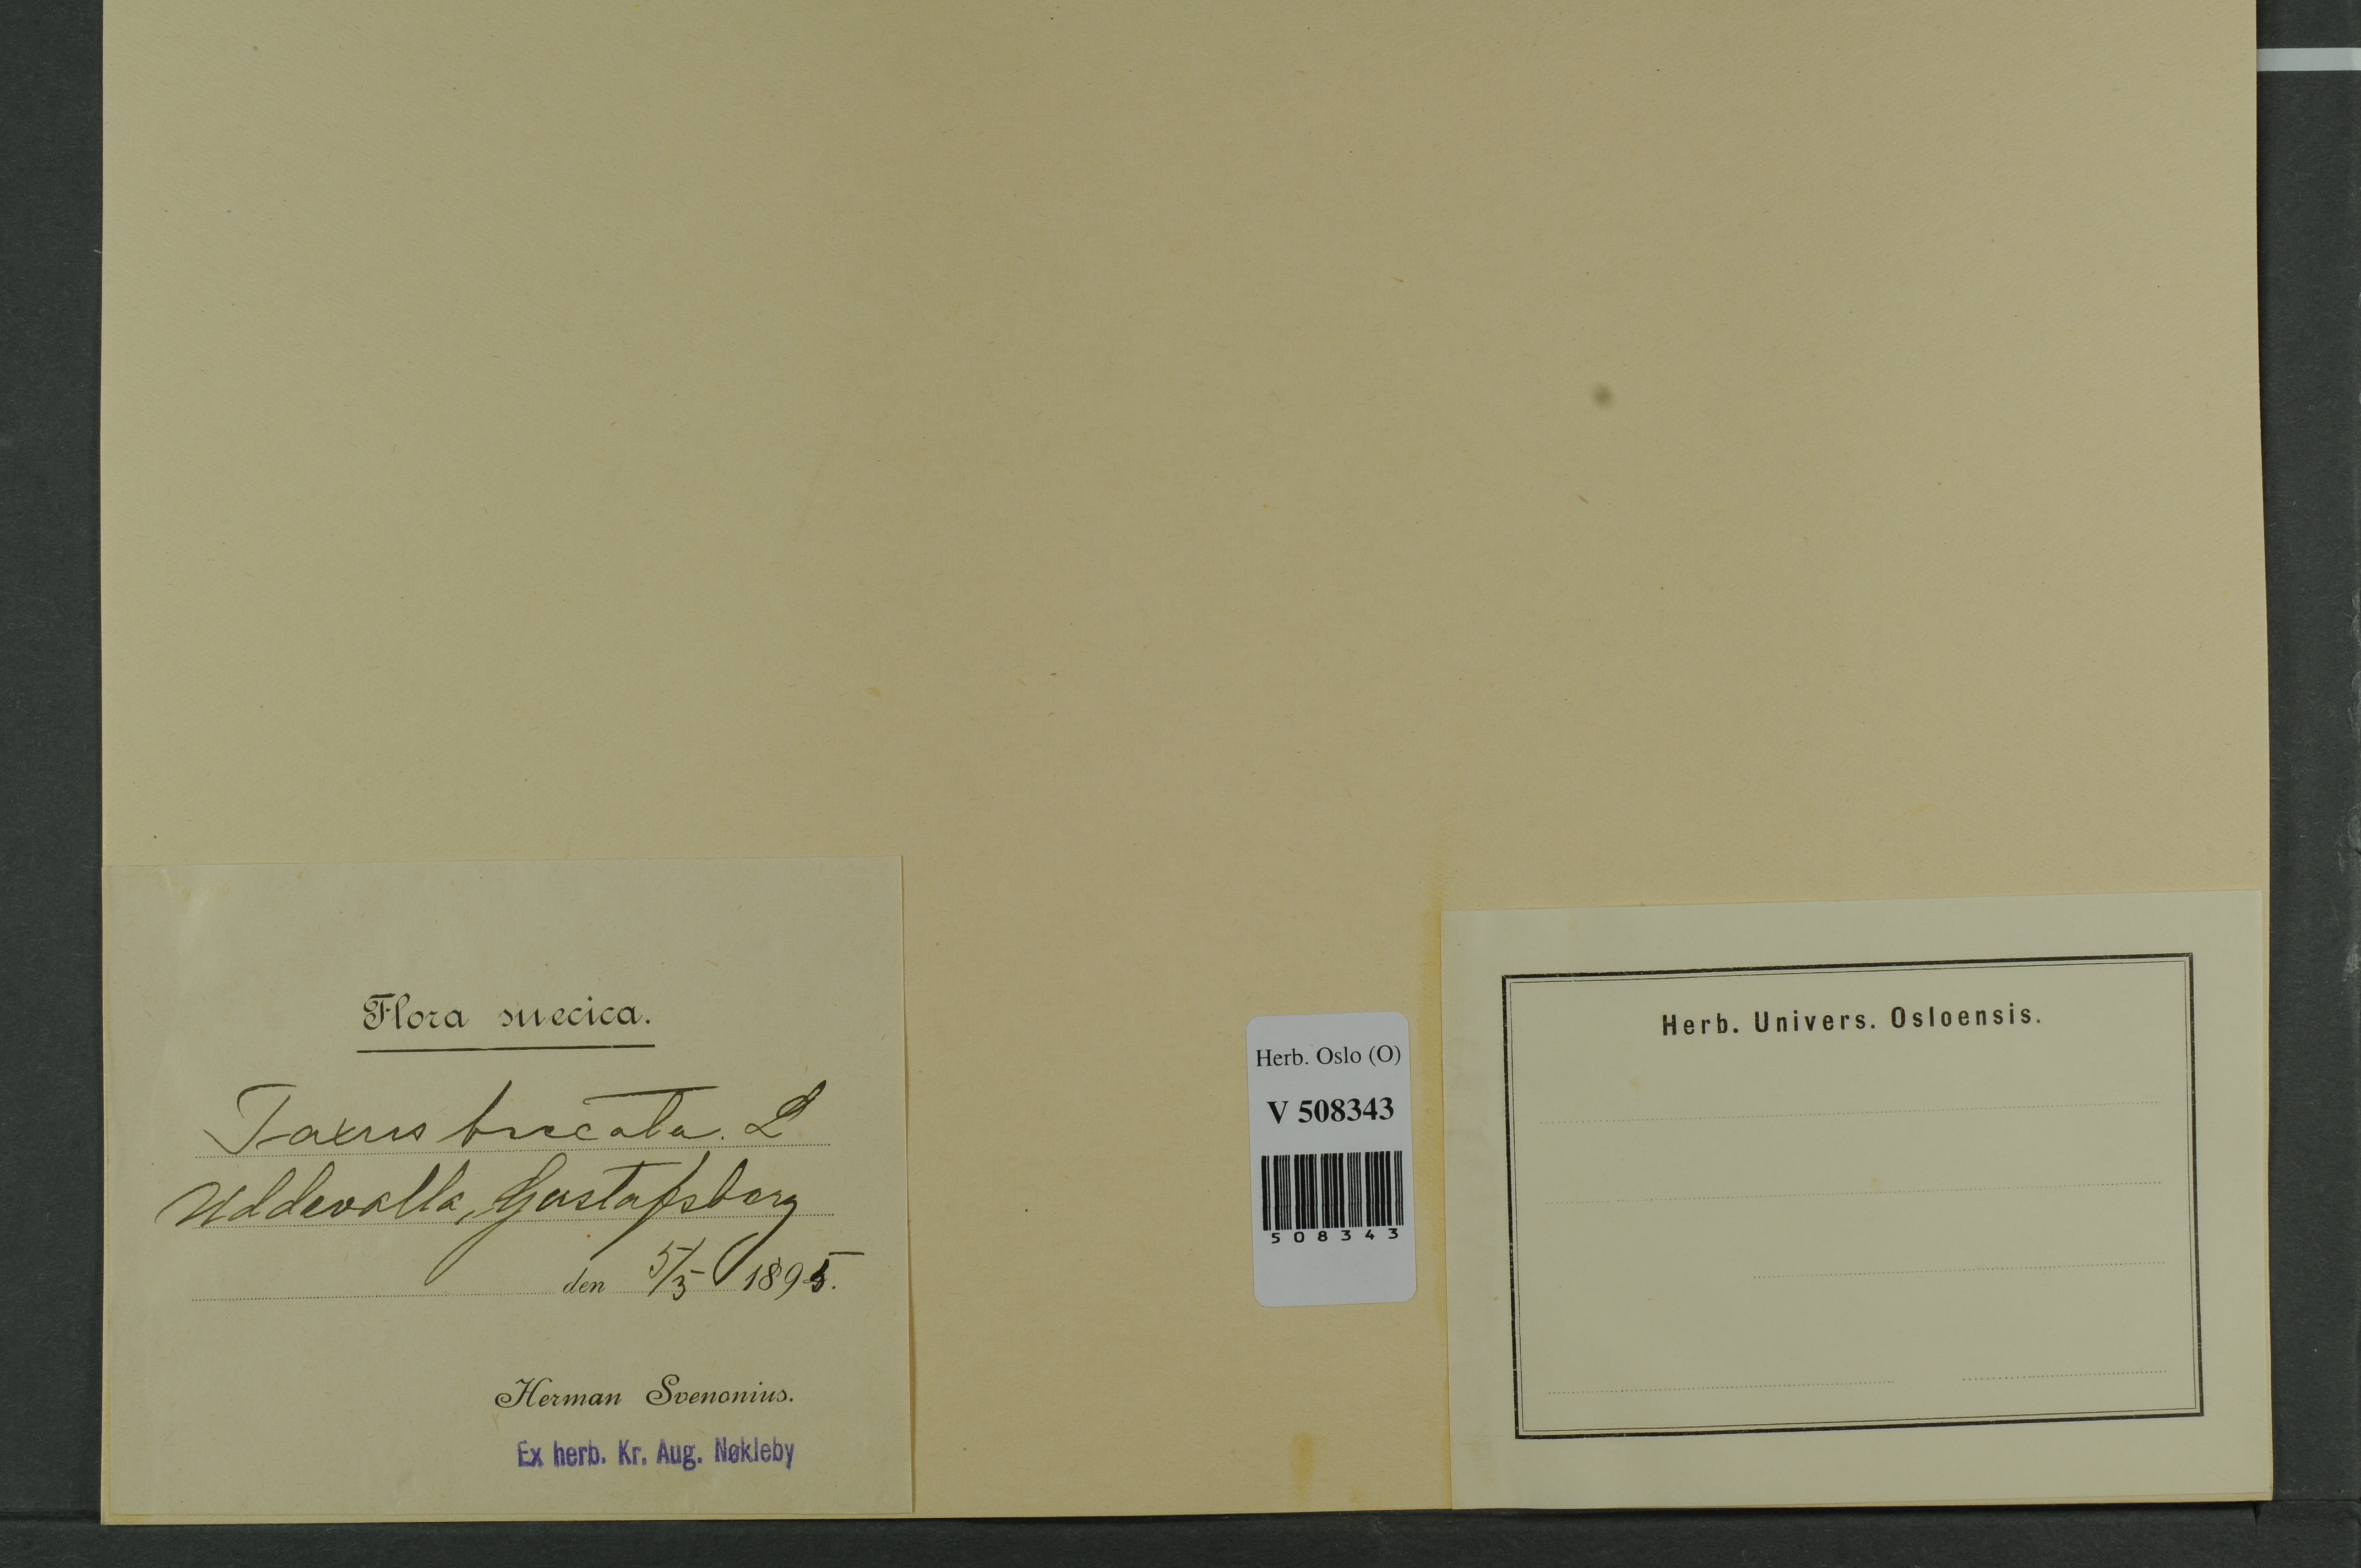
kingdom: Plantae
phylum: Tracheophyta
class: Pinopsida
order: Pinales
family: Taxaceae
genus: Taxus
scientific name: Taxus baccata
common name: Yew
